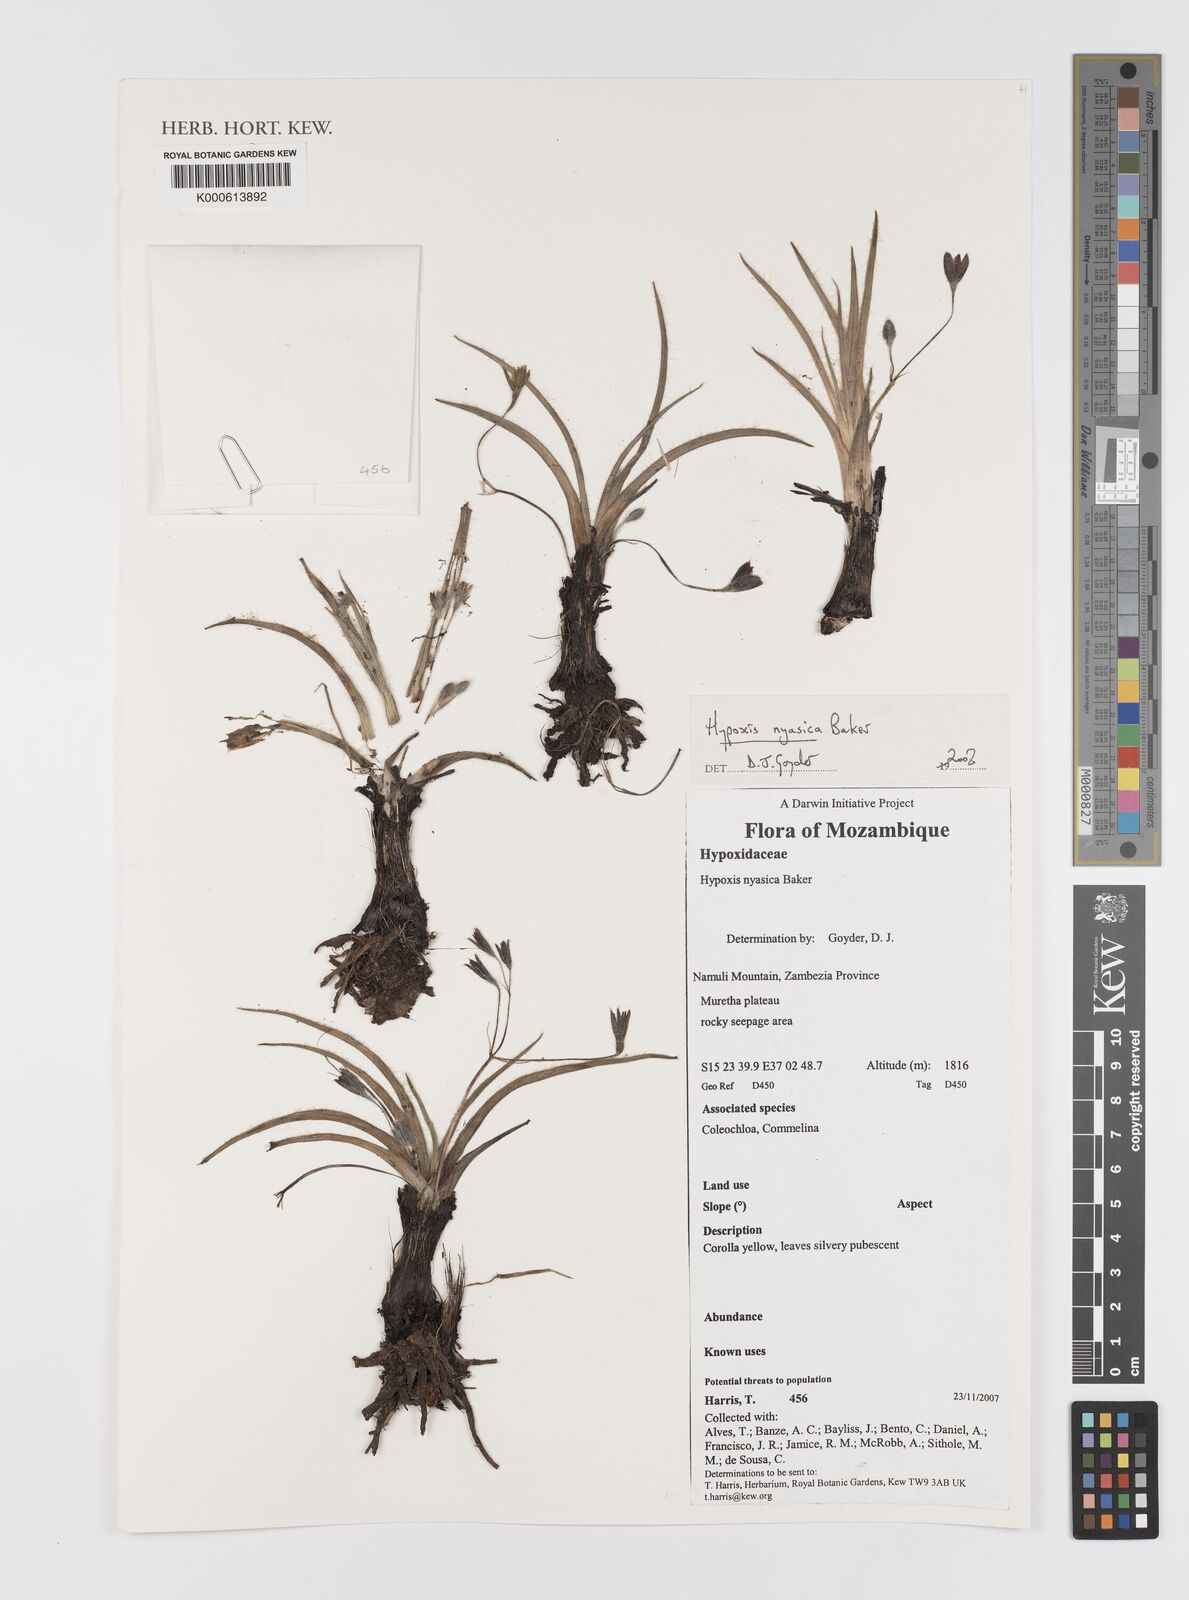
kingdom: Plantae
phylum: Tracheophyta
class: Liliopsida
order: Asparagales
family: Hypoxidaceae
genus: Hypoxis
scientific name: Hypoxis nyasica
